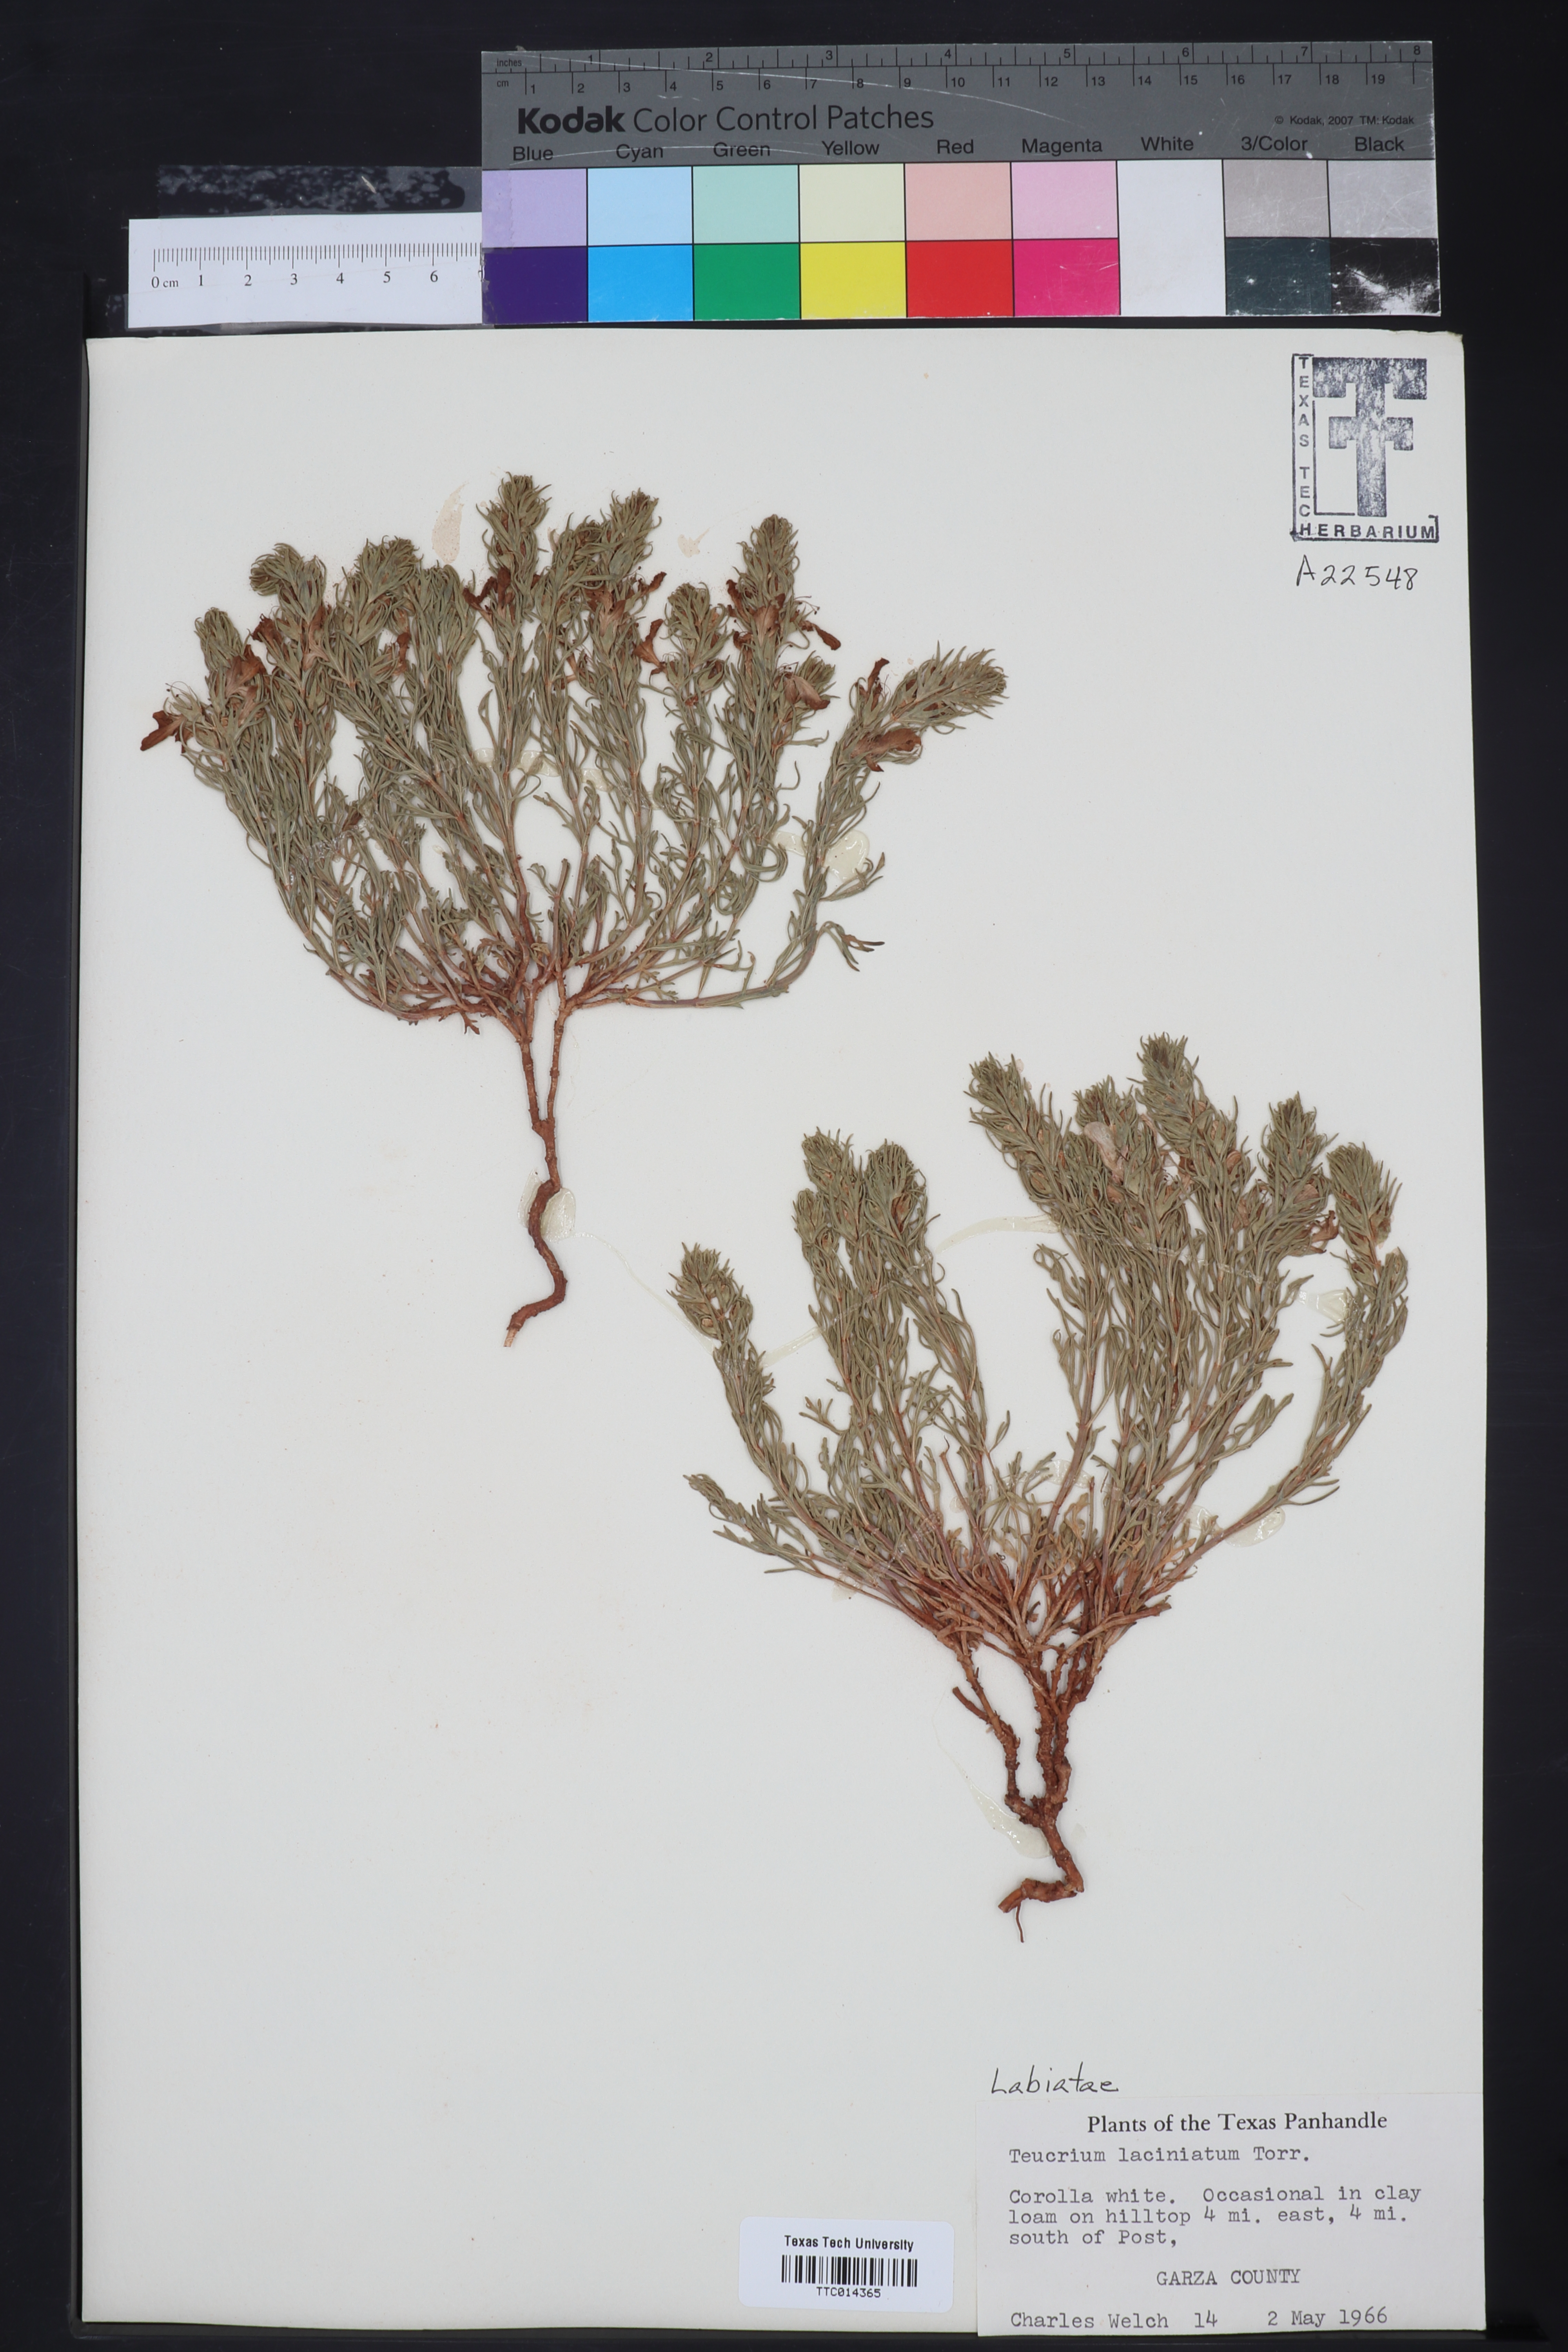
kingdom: Plantae
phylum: Tracheophyta
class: Magnoliopsida
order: Lamiales
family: Lamiaceae
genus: Teucrium
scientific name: Teucrium laciniatum
